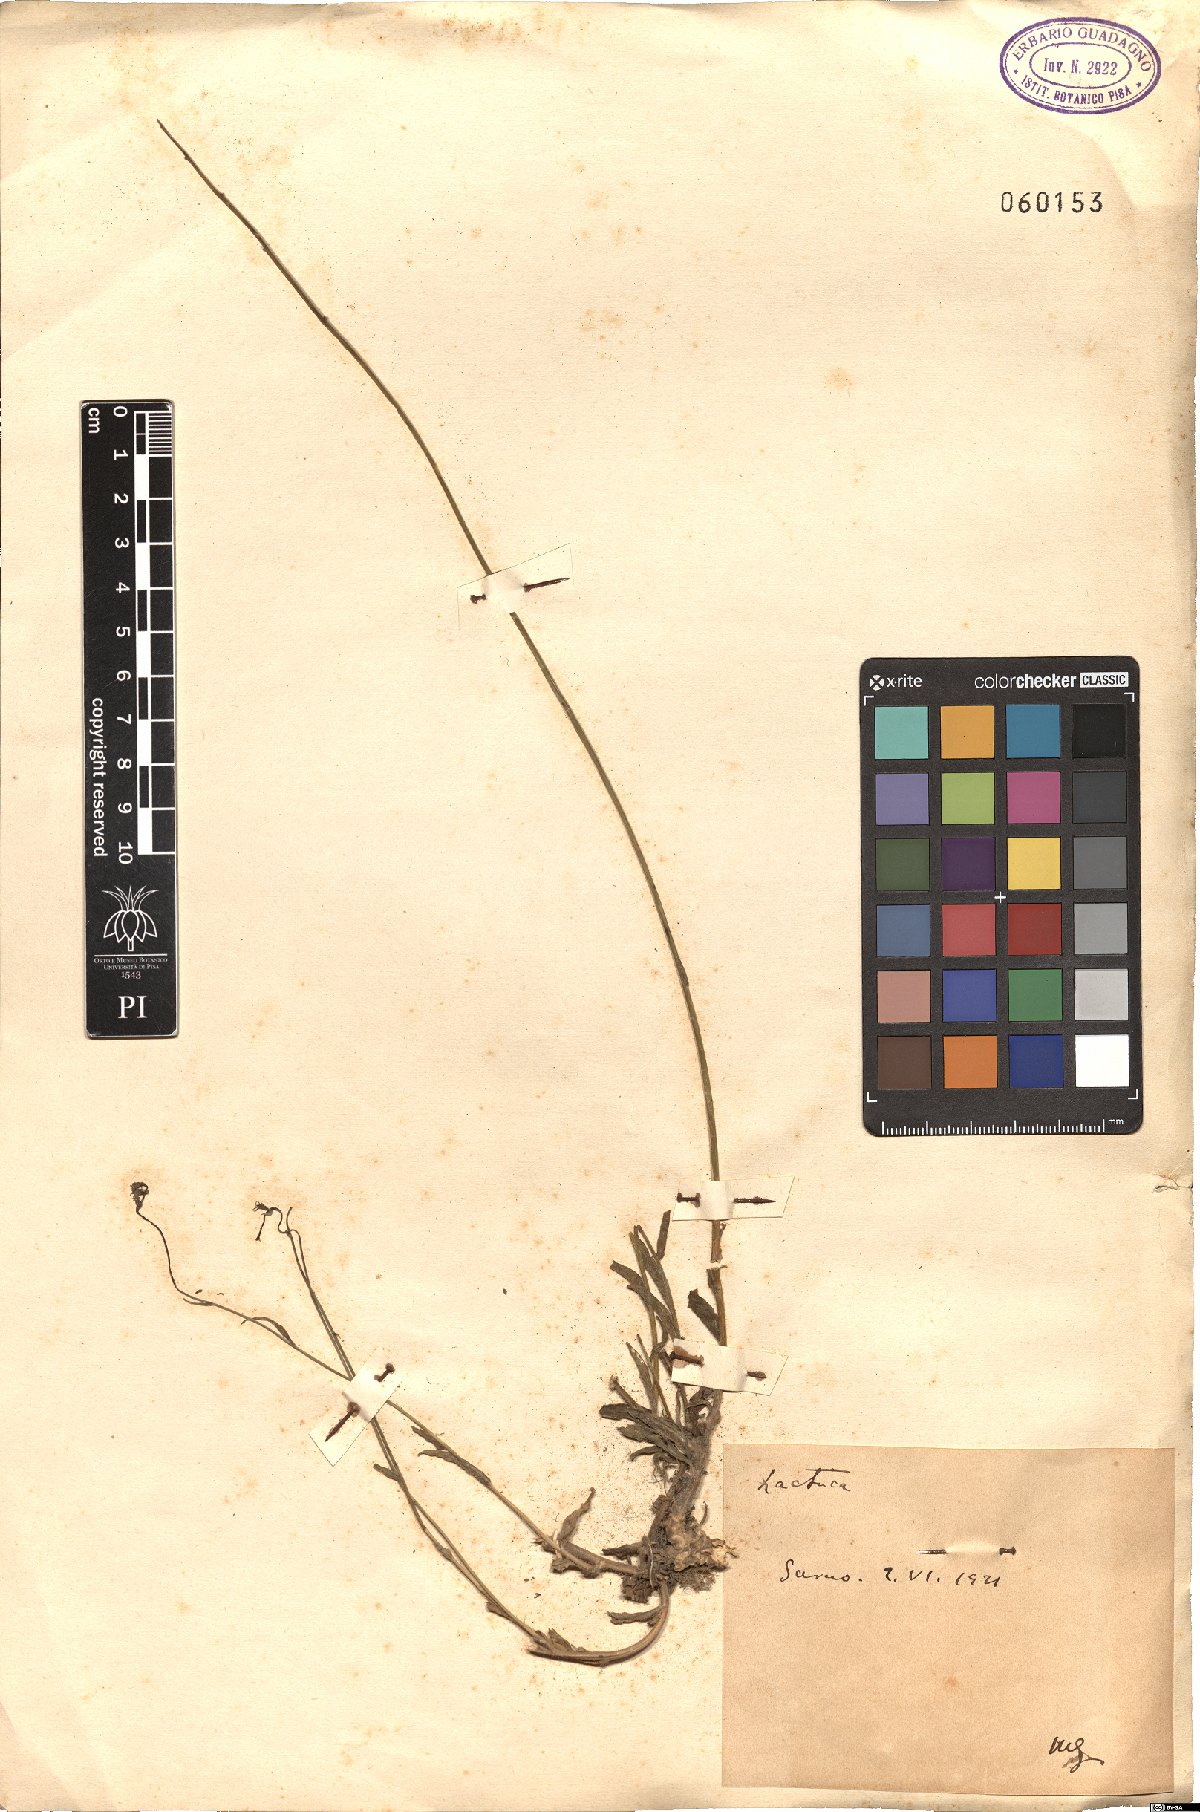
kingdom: Plantae
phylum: Tracheophyta
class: Magnoliopsida
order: Asterales
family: Asteraceae
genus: Lactuca
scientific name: Lactuca
